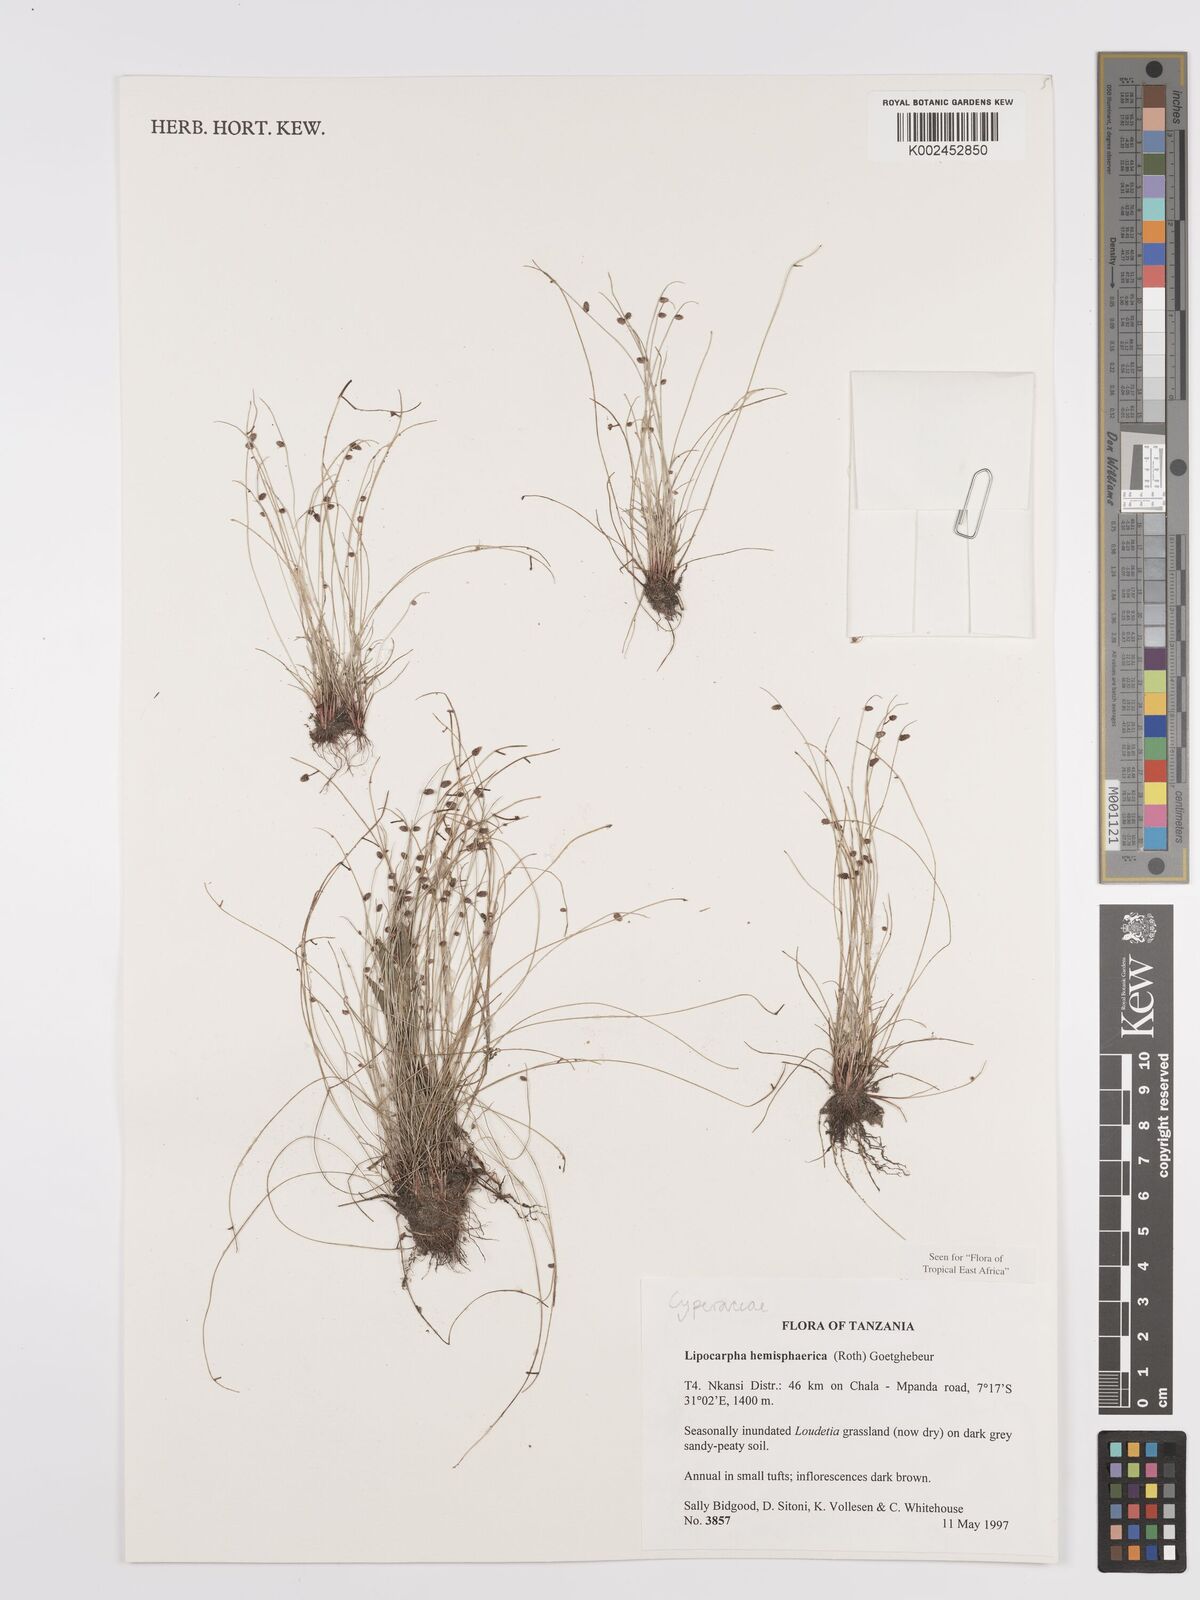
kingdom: Plantae
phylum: Tracheophyta
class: Liliopsida
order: Poales
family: Cyperaceae
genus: Cyperus
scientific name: Cyperus hemisphaericus
